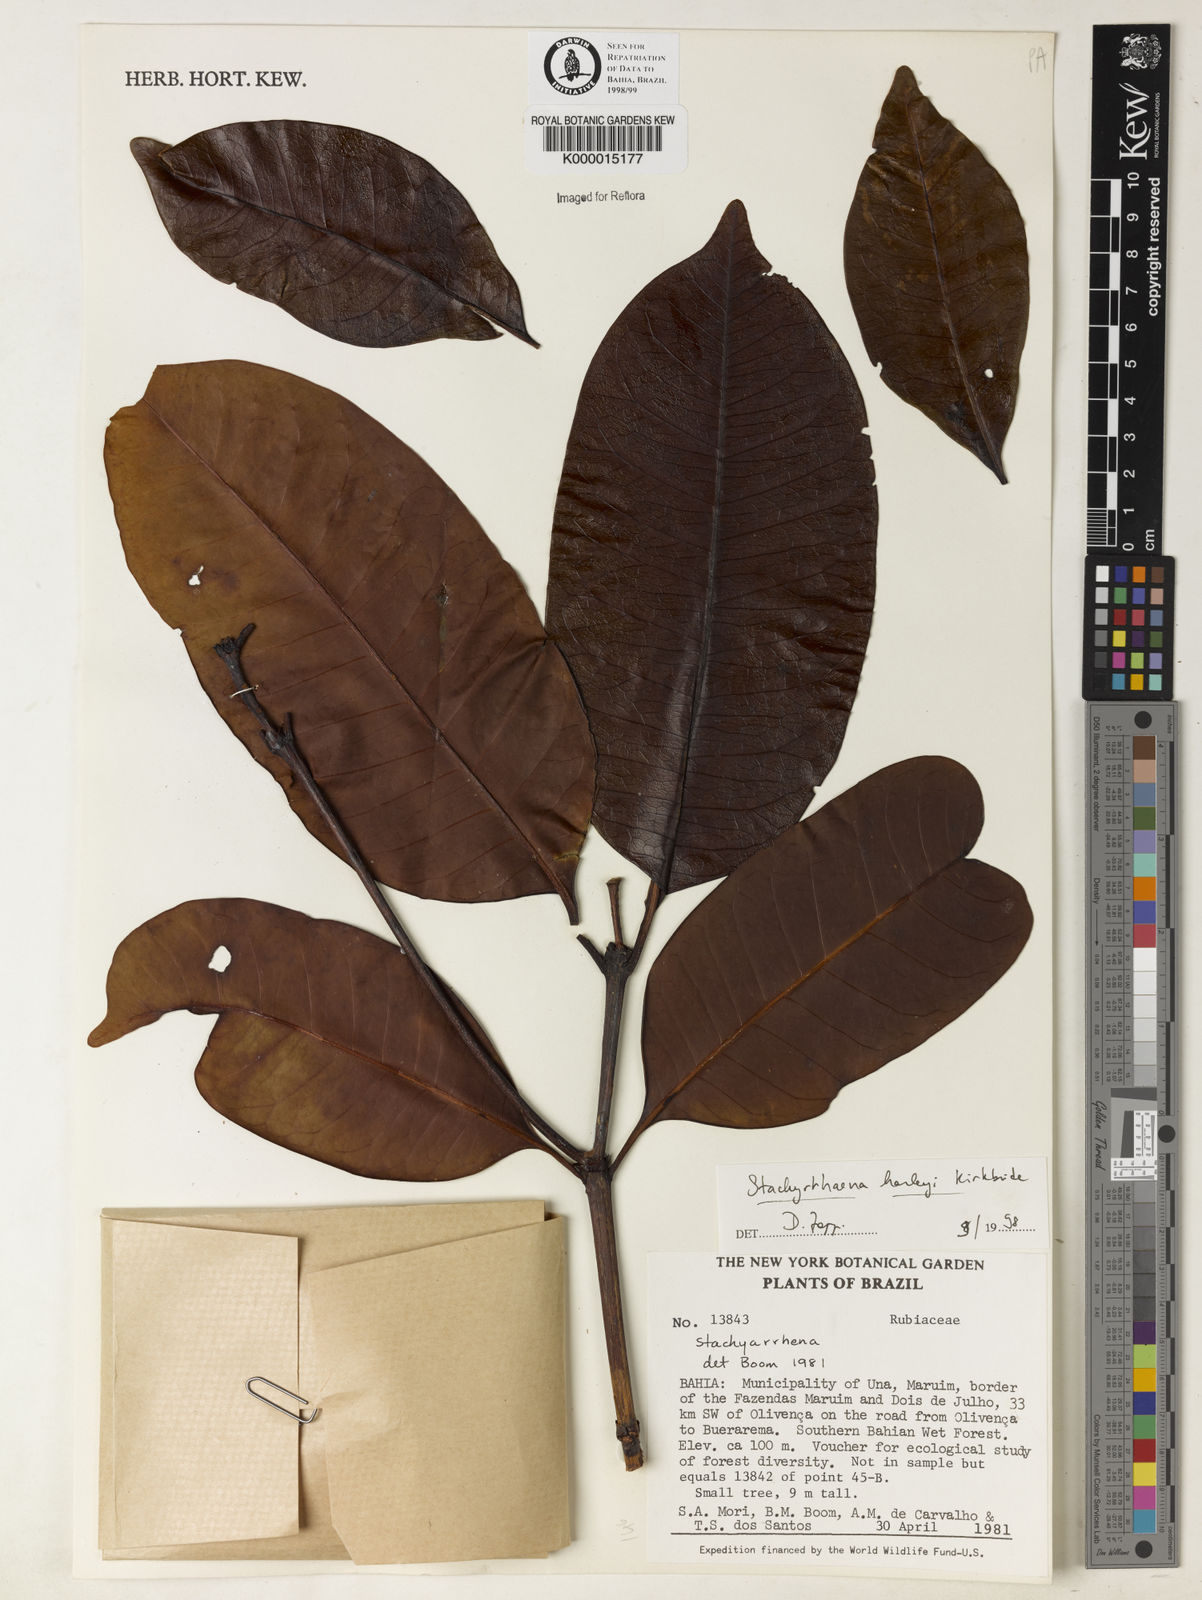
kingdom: Plantae
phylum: Tracheophyta
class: Magnoliopsida
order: Gentianales
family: Rubiaceae
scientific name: Rubiaceae
